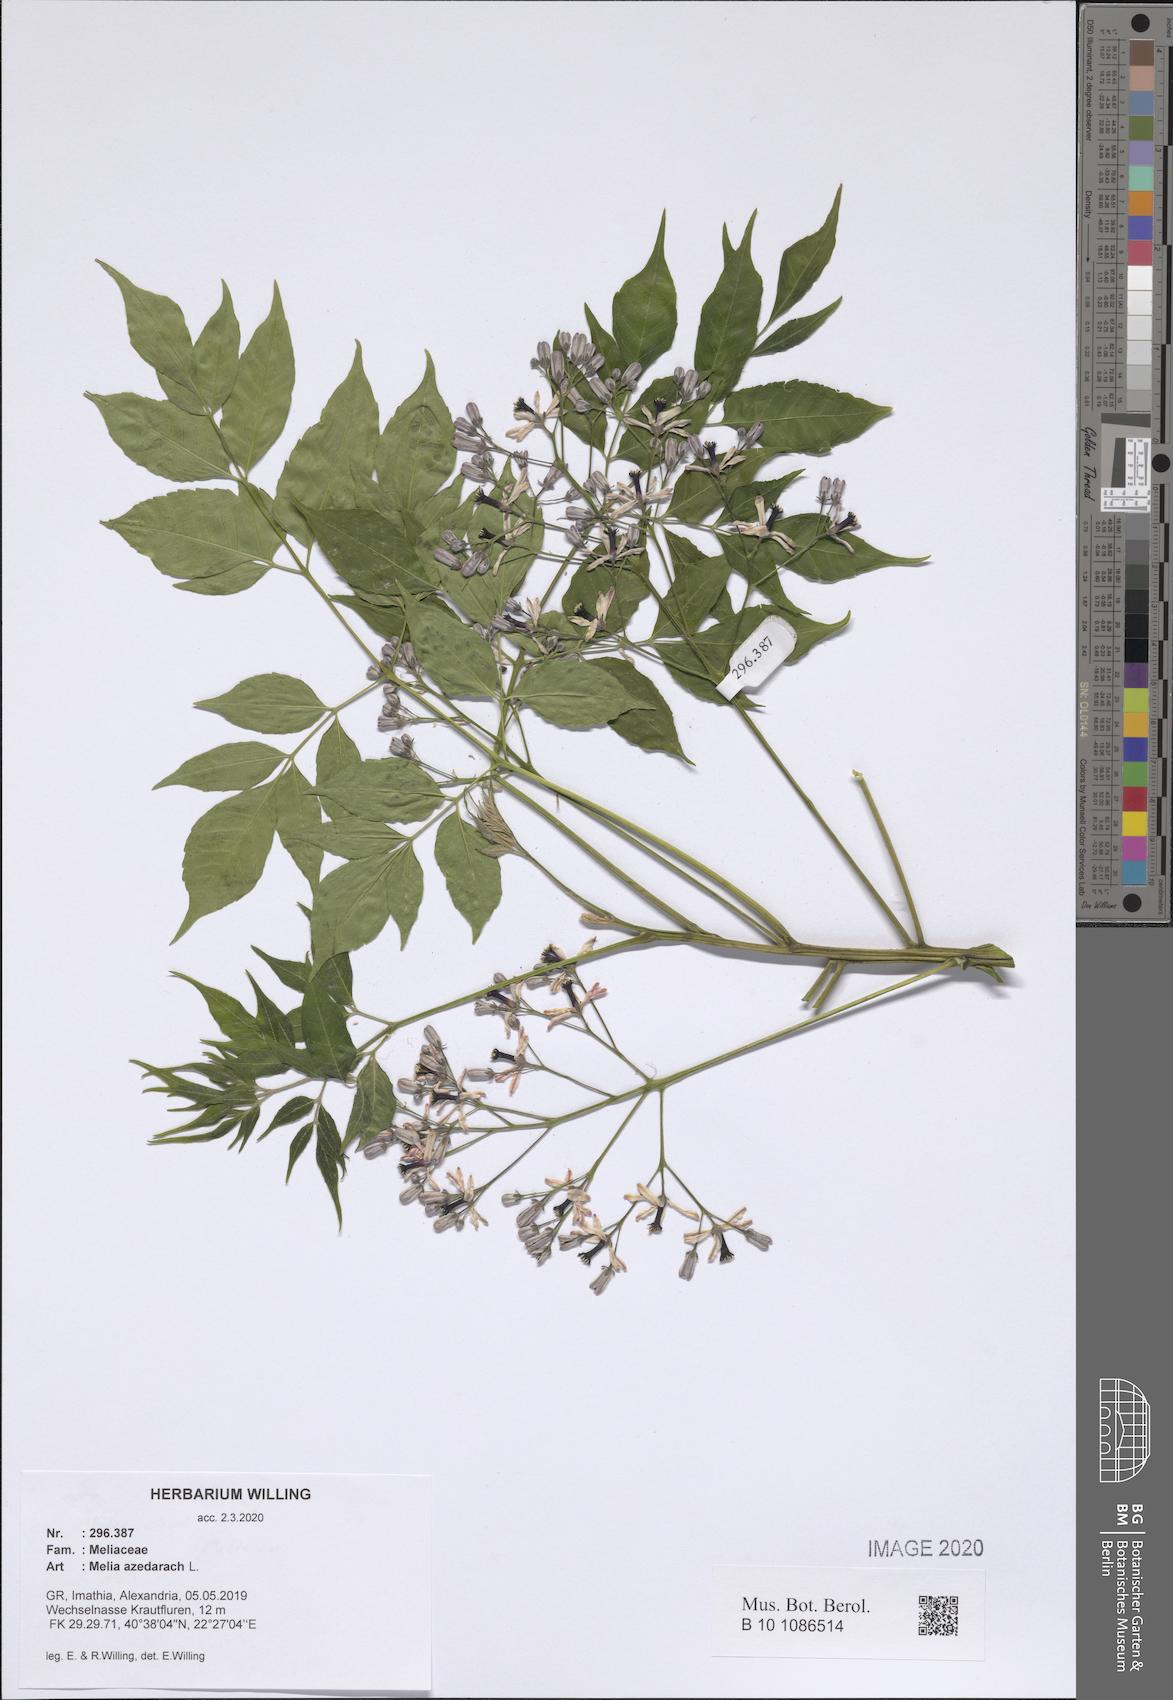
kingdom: Plantae
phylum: Tracheophyta
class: Magnoliopsida
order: Sapindales
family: Meliaceae
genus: Melia
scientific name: Melia azedarach
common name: Chinaberrytree
